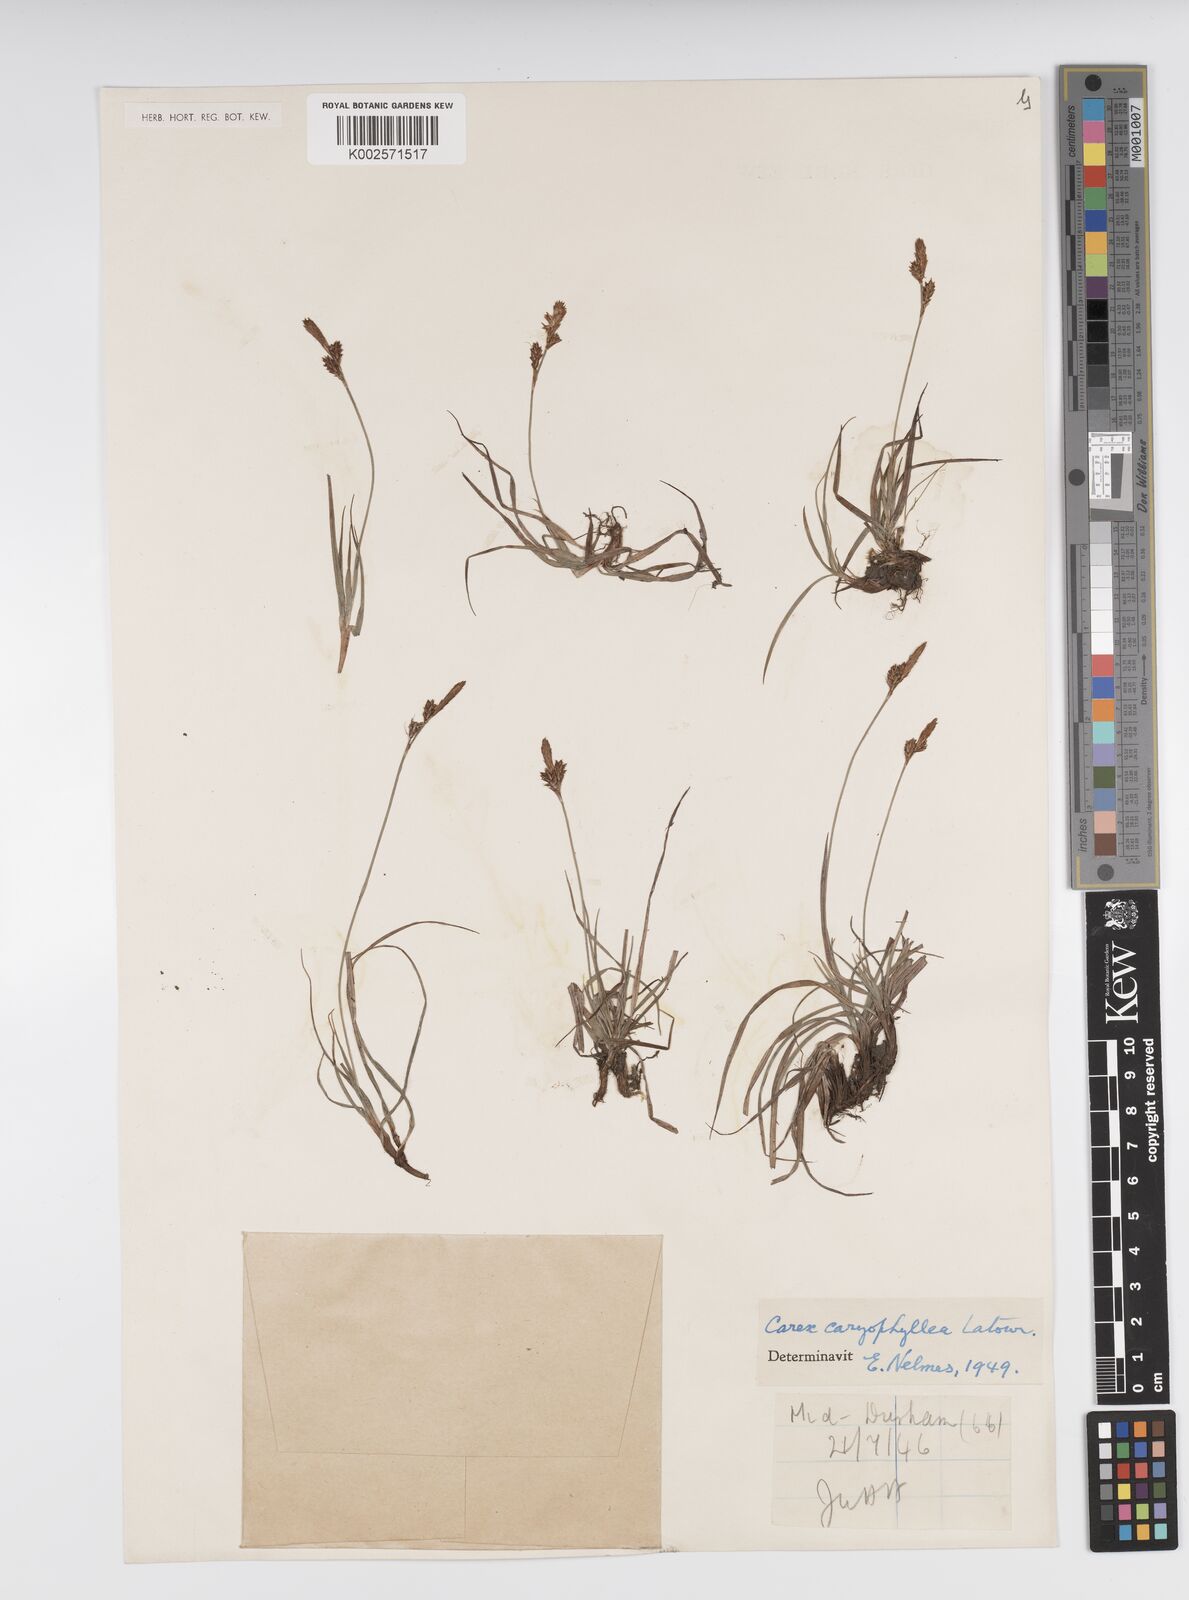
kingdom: Plantae
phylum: Tracheophyta
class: Liliopsida
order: Poales
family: Cyperaceae
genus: Carex
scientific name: Carex caryophyllea
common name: Spring sedge
